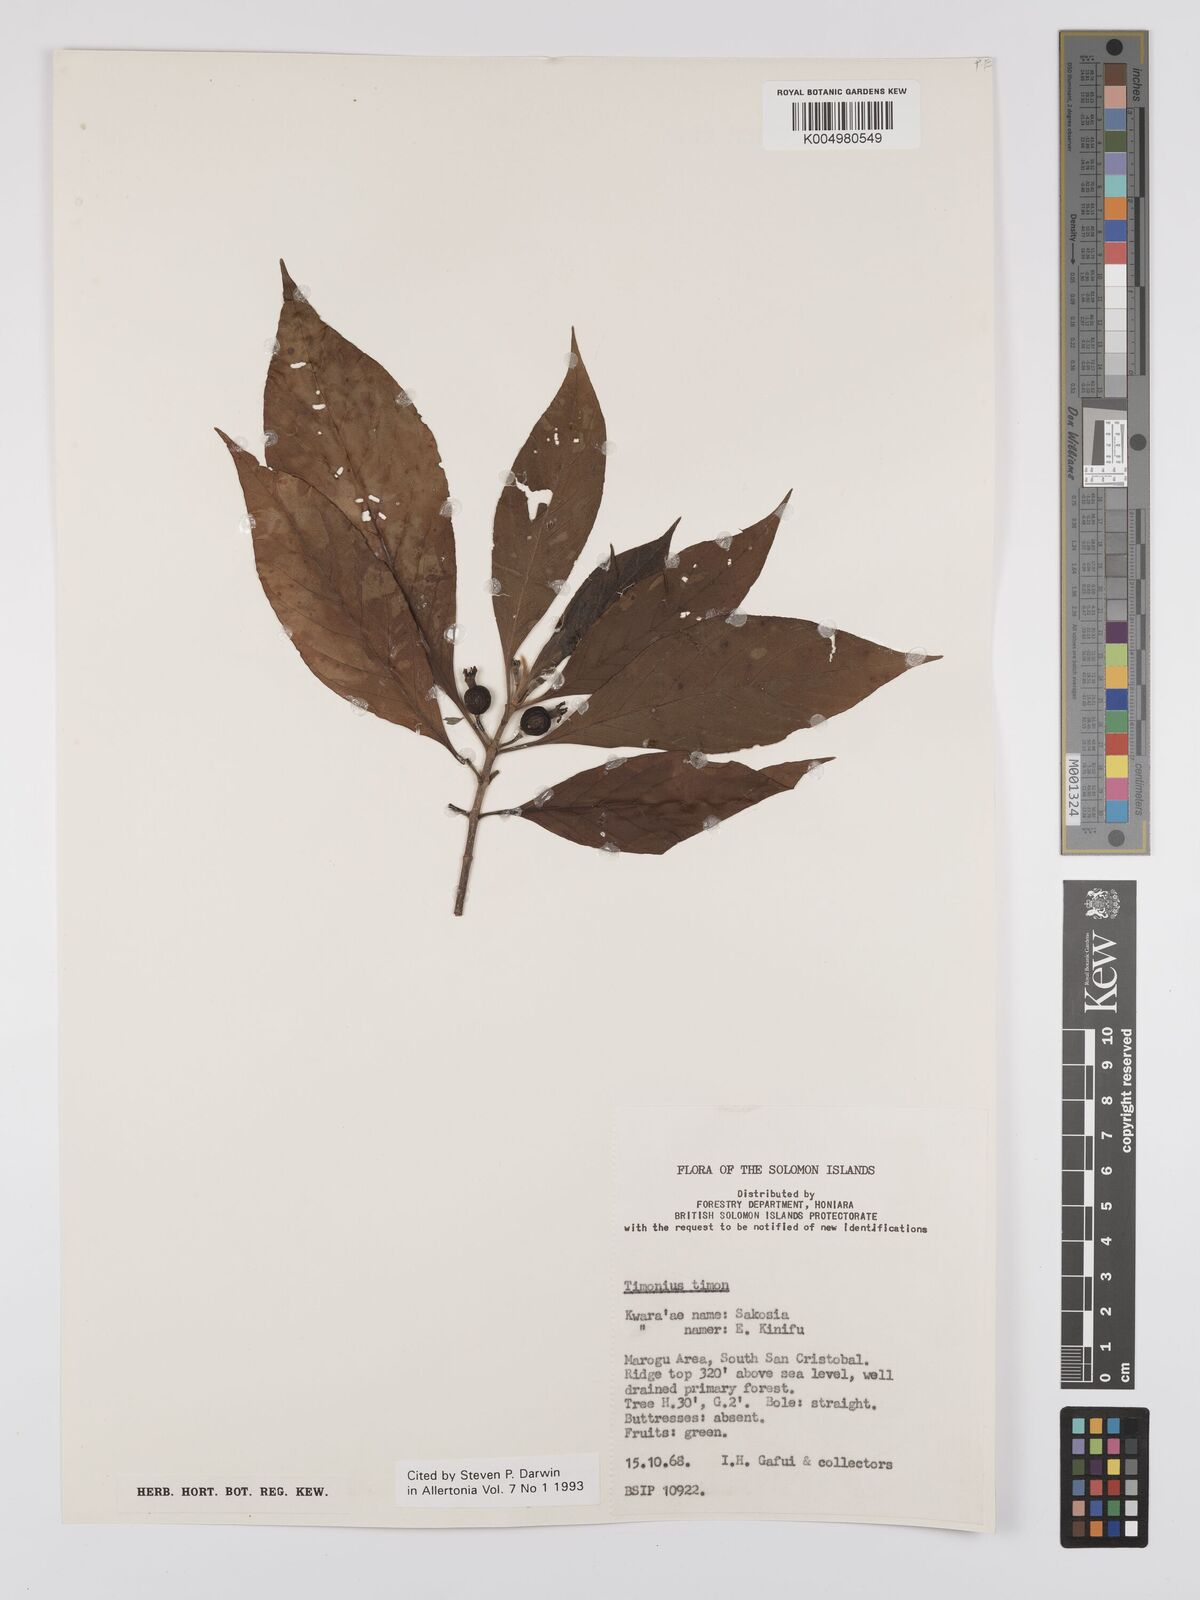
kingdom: Plantae
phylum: Tracheophyta
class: Magnoliopsida
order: Gentianales
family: Rubiaceae
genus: Timonius
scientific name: Timonius timon
